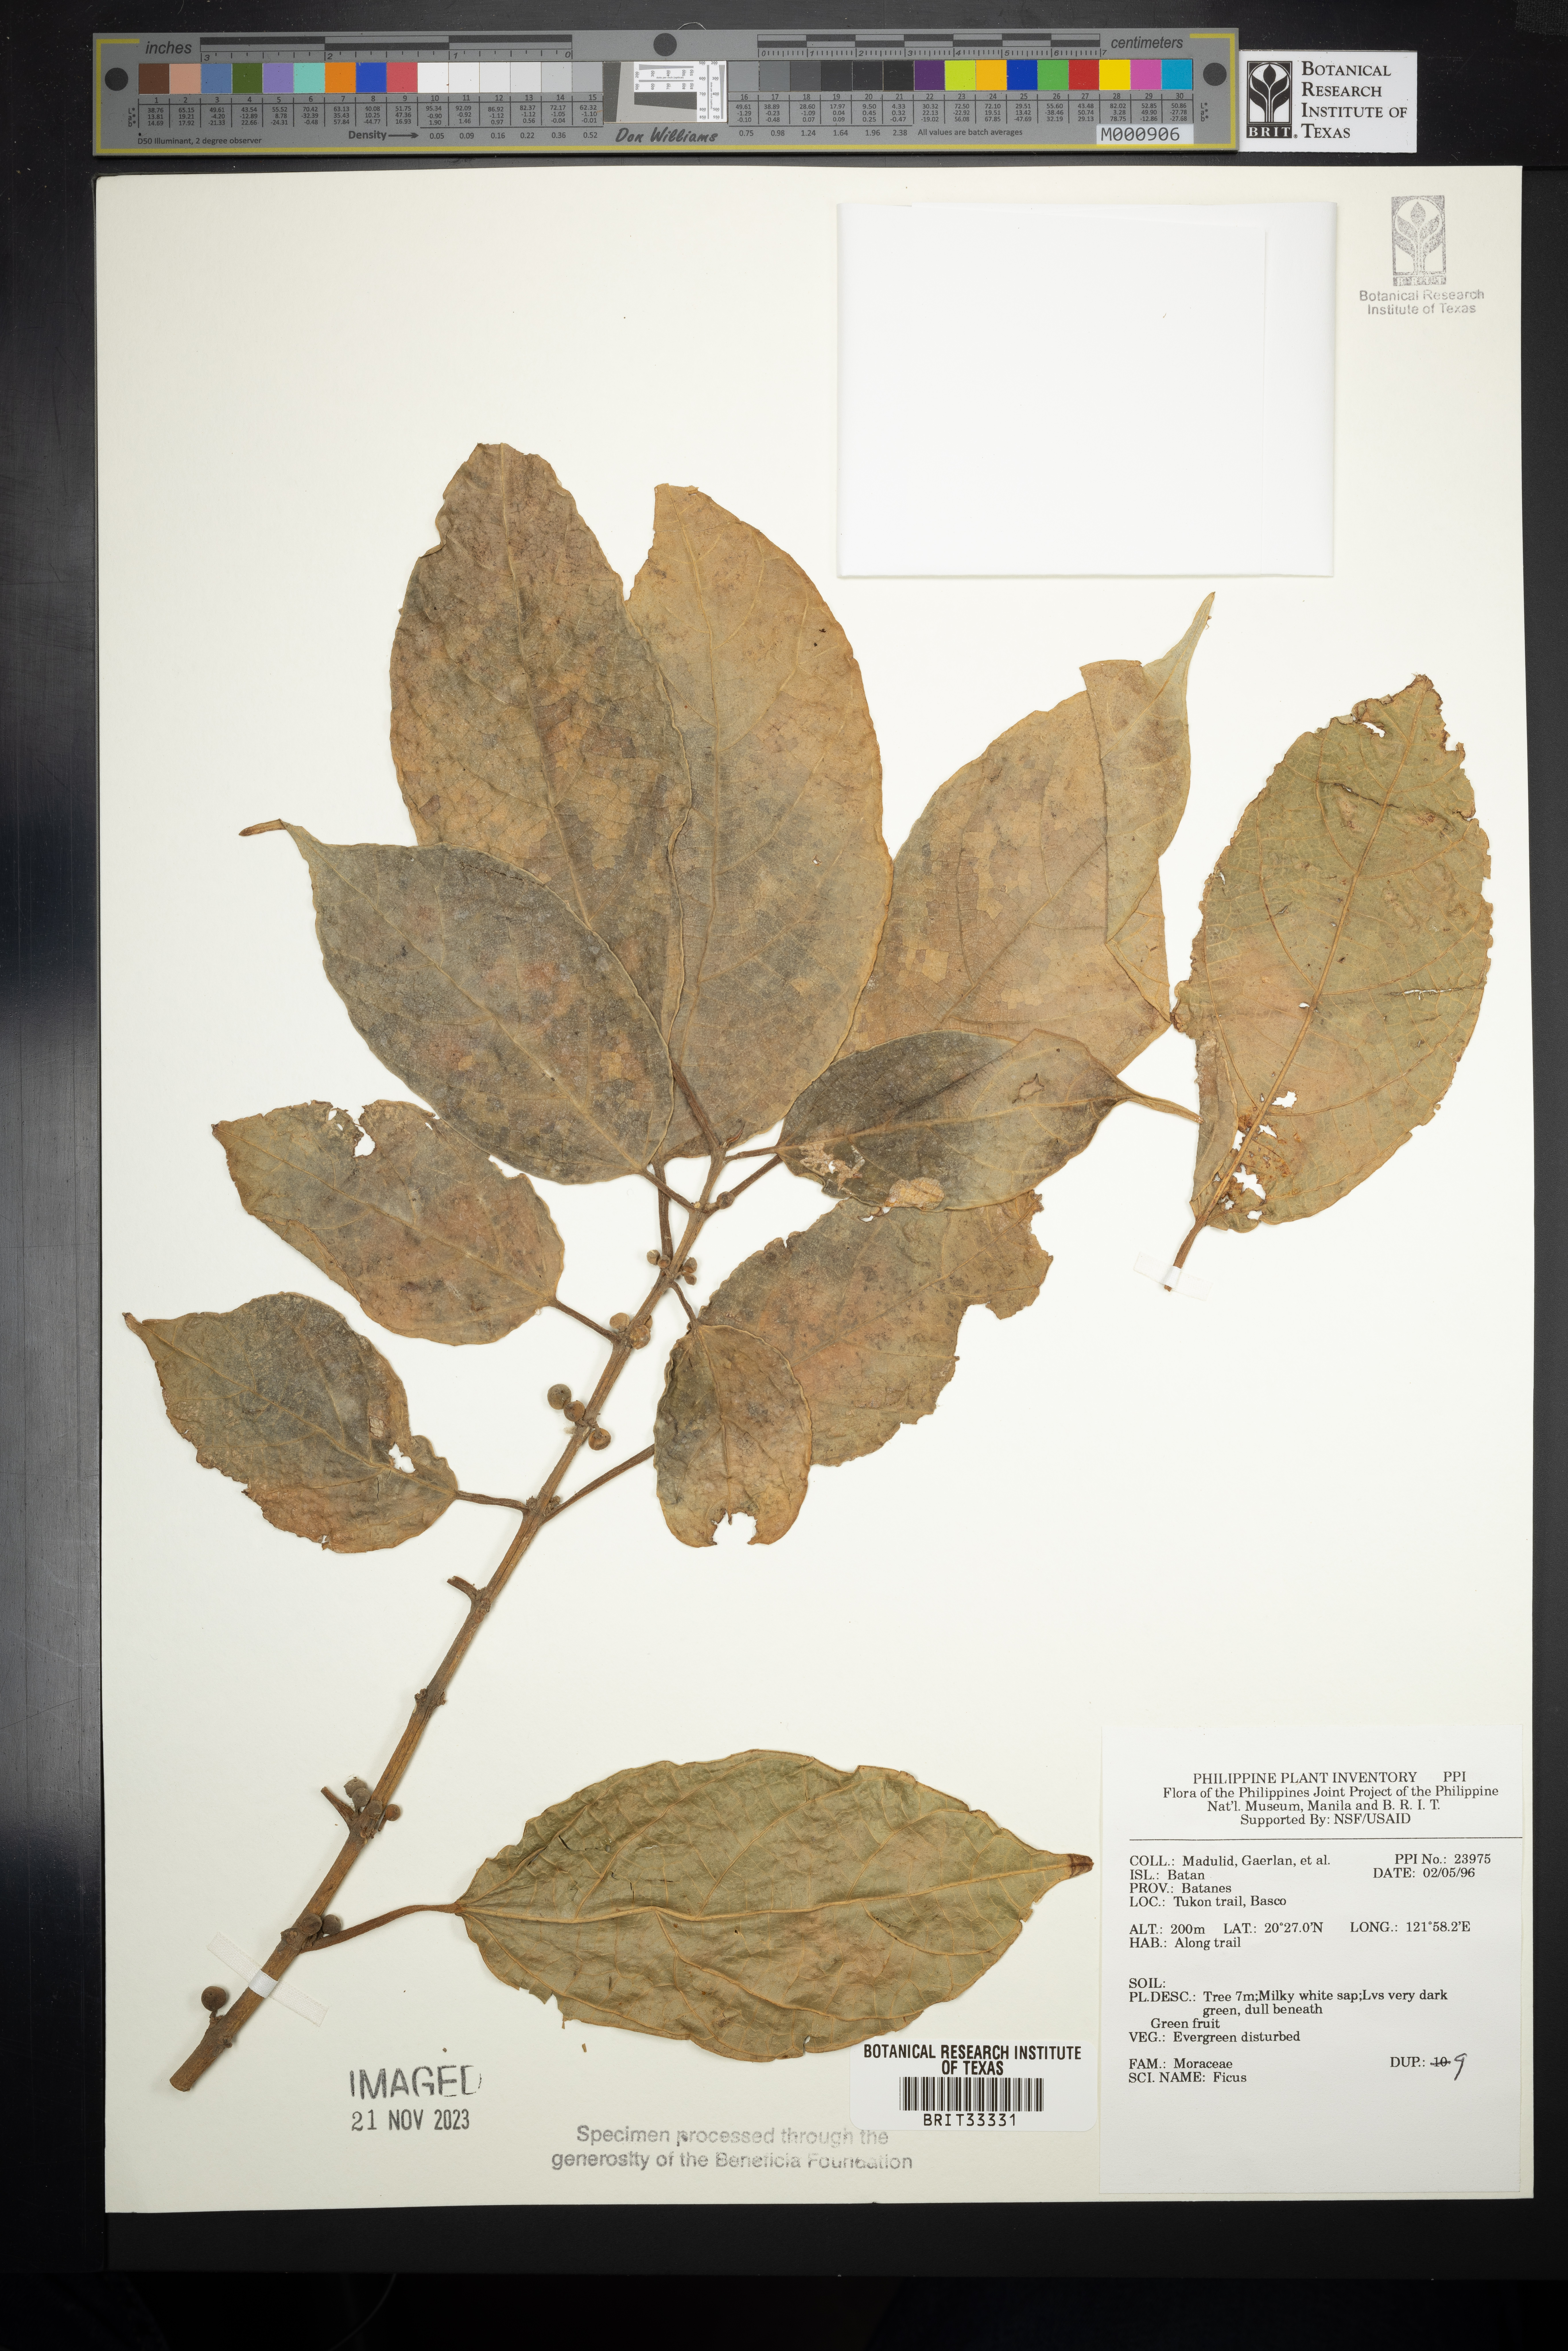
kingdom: Plantae
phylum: Tracheophyta
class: Magnoliopsida
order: Rosales
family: Moraceae
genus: Ficus
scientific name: Ficus
